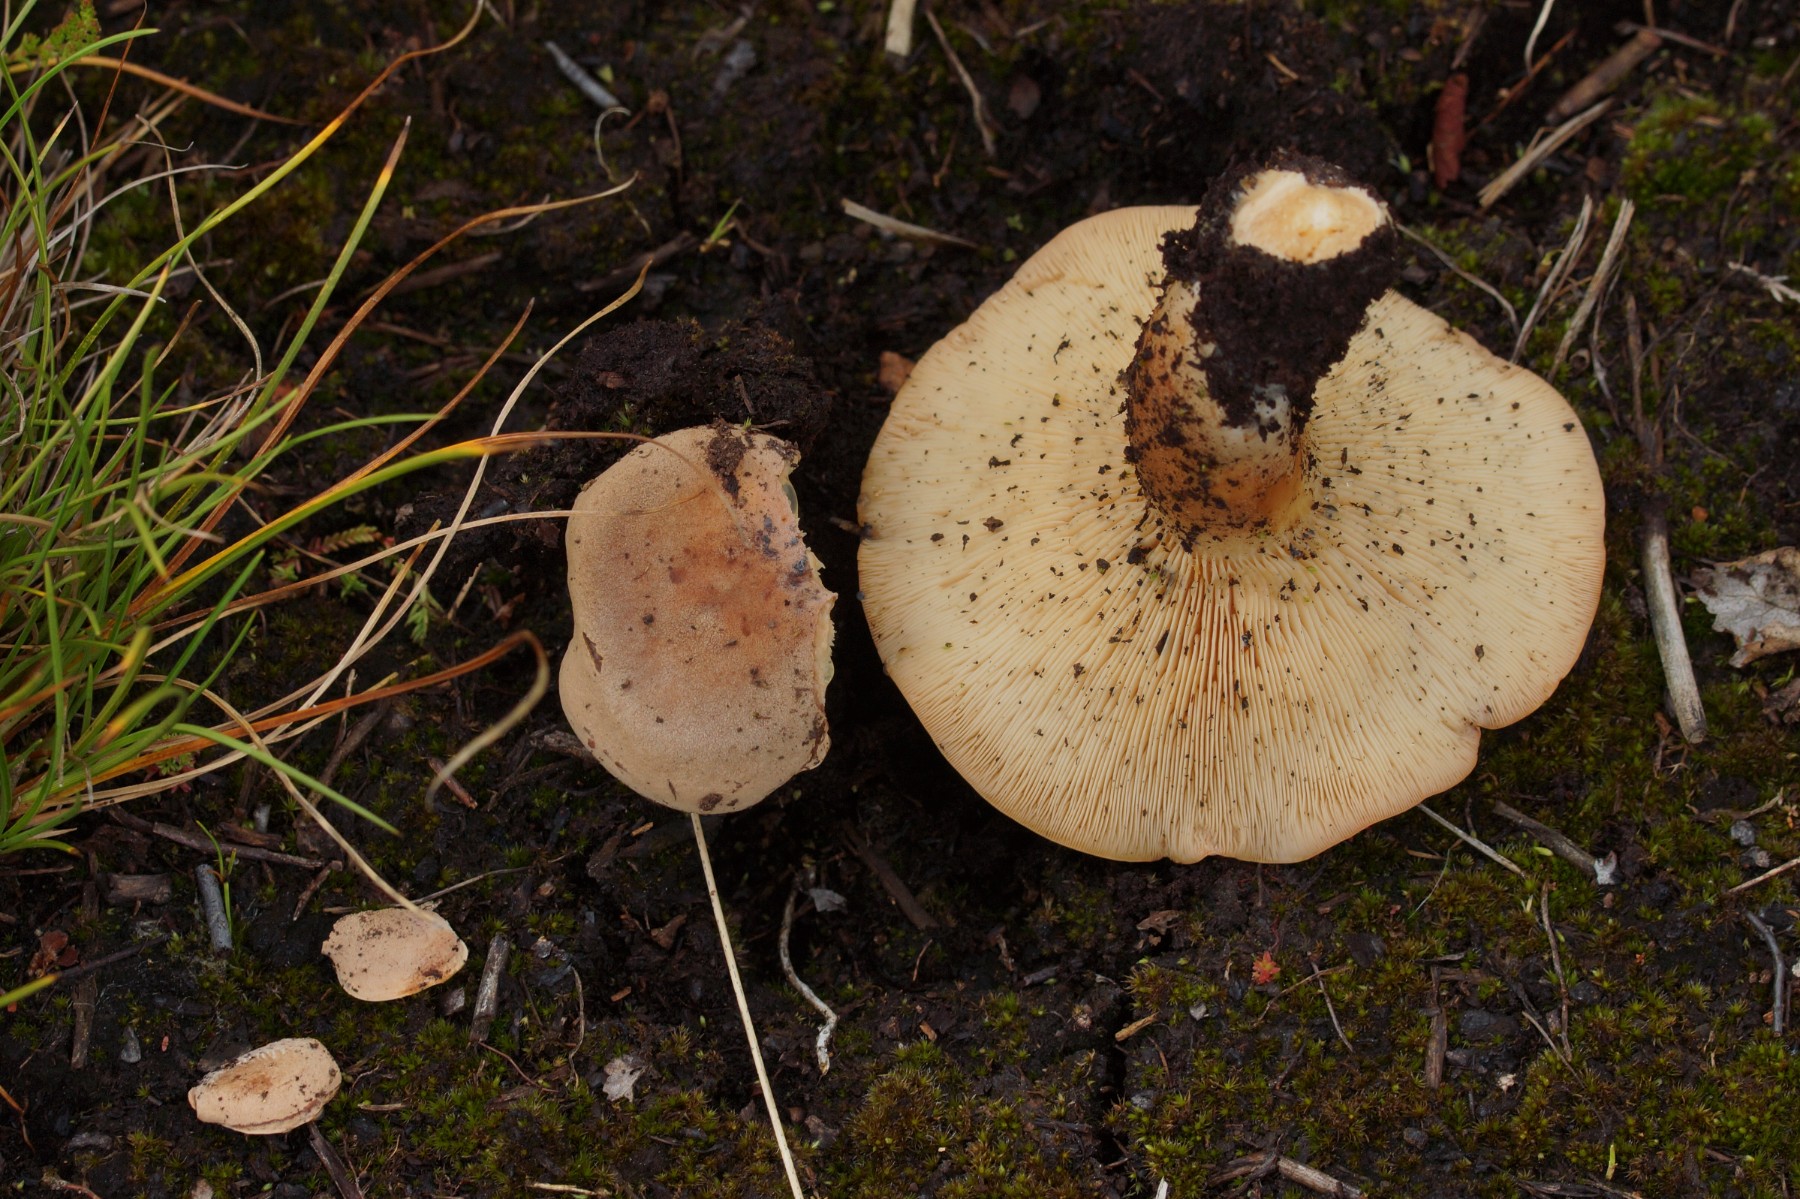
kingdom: Fungi
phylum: Basidiomycota
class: Agaricomycetes
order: Russulales
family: Russulaceae
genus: Lactarius
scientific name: Lactarius helvus
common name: mose-mælkehat
